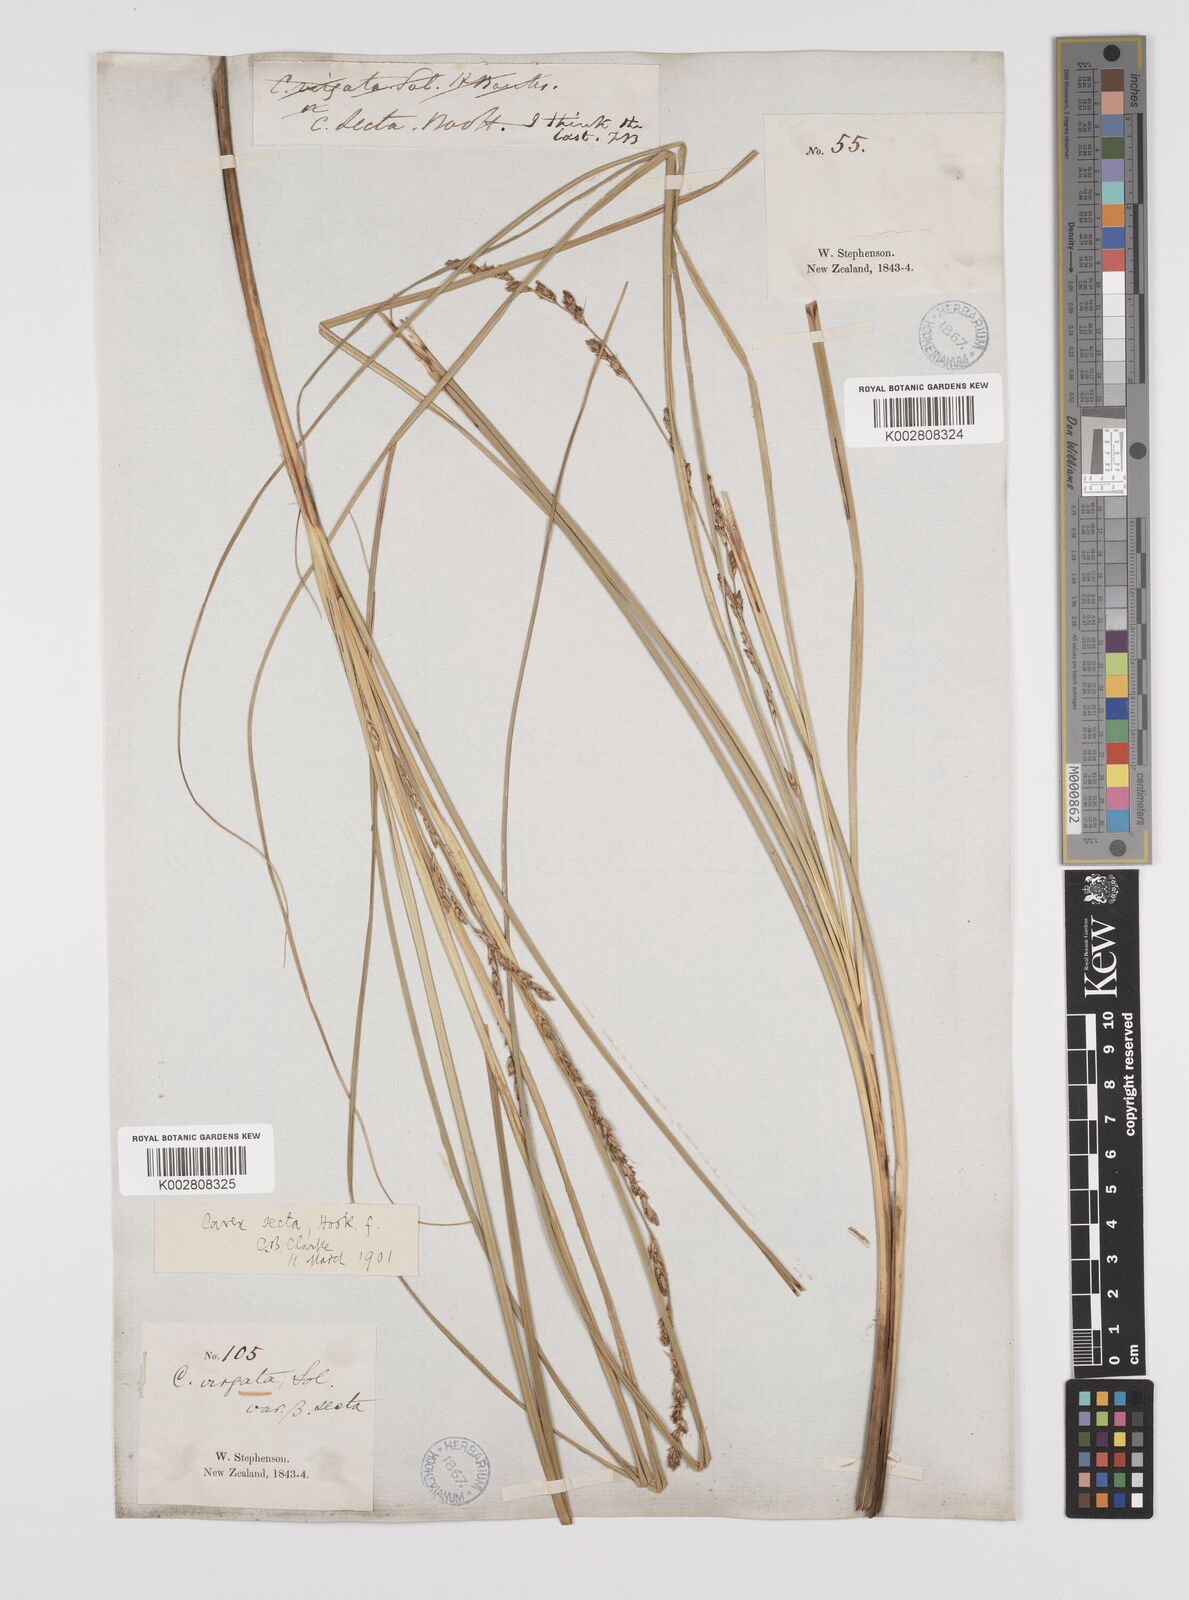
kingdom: Plantae
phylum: Tracheophyta
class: Liliopsida
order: Poales
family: Cyperaceae
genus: Carex
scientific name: Carex appressa
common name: Tussock sedge
